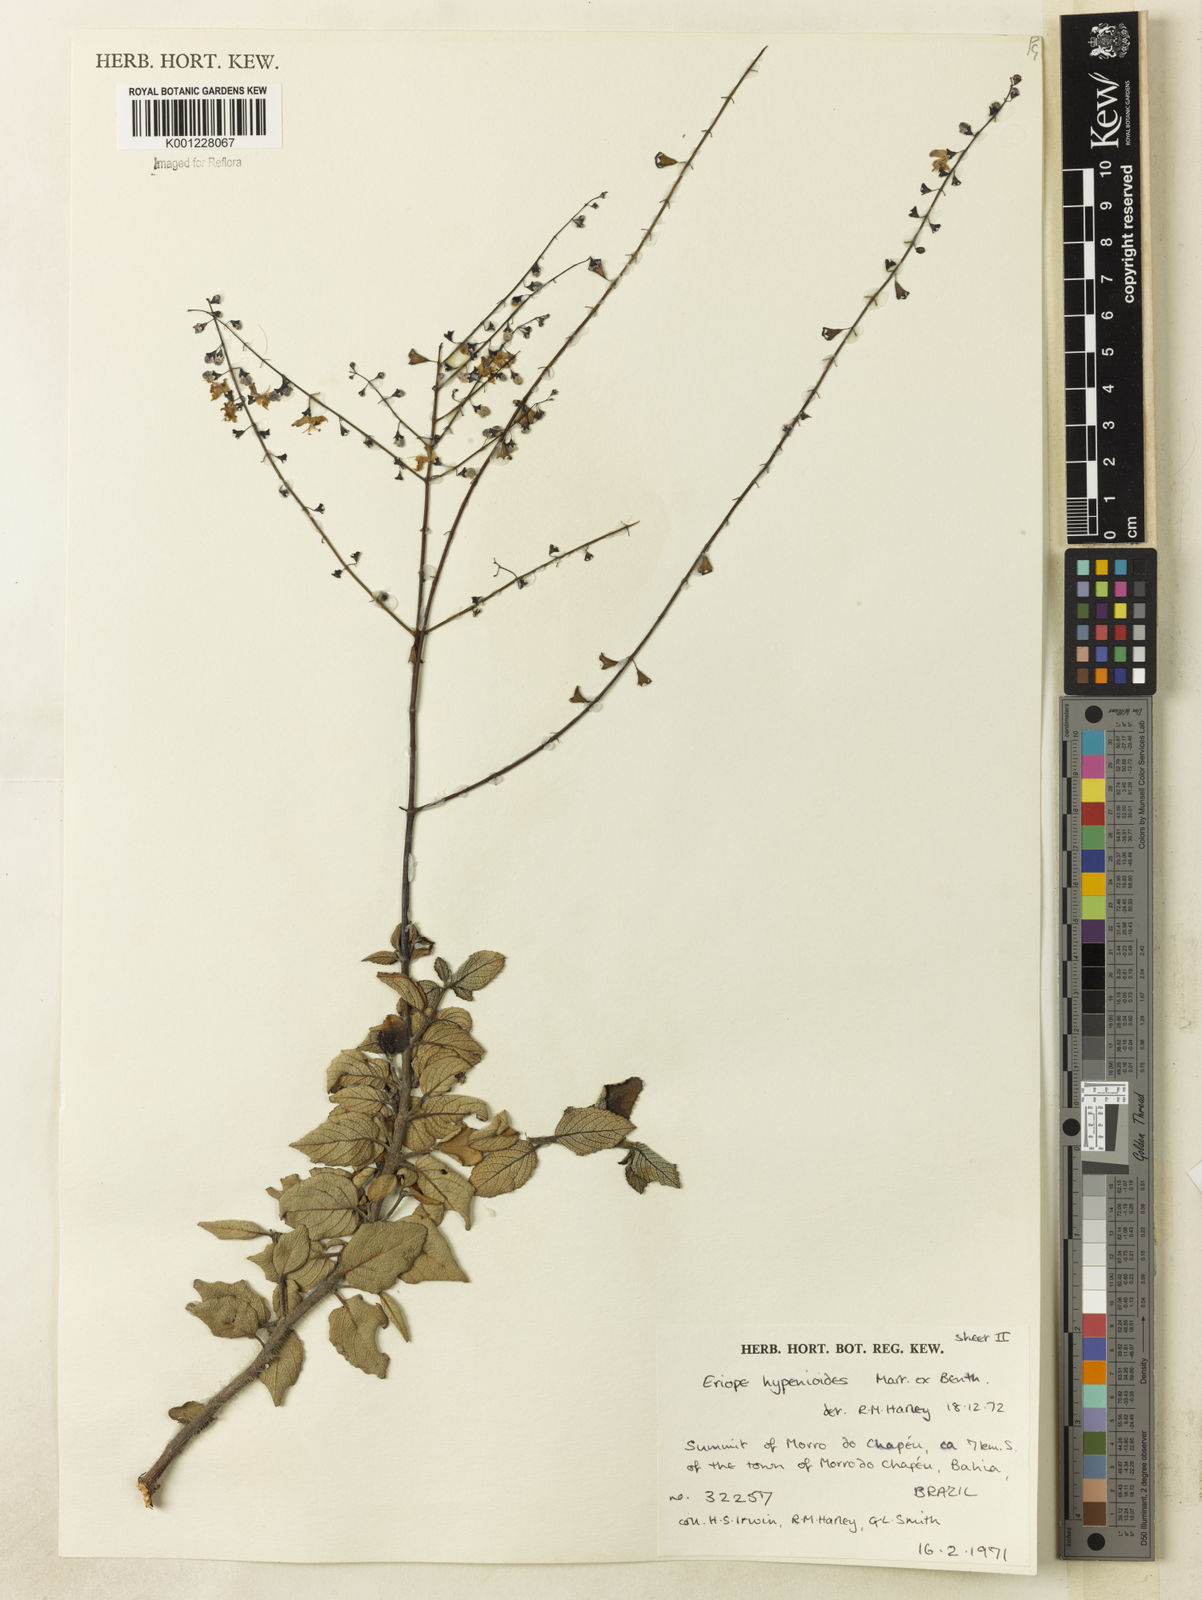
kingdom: Plantae
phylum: Tracheophyta
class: Magnoliopsida
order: Lamiales
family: Lamiaceae
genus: Eriope
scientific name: Eriope hypenioides
